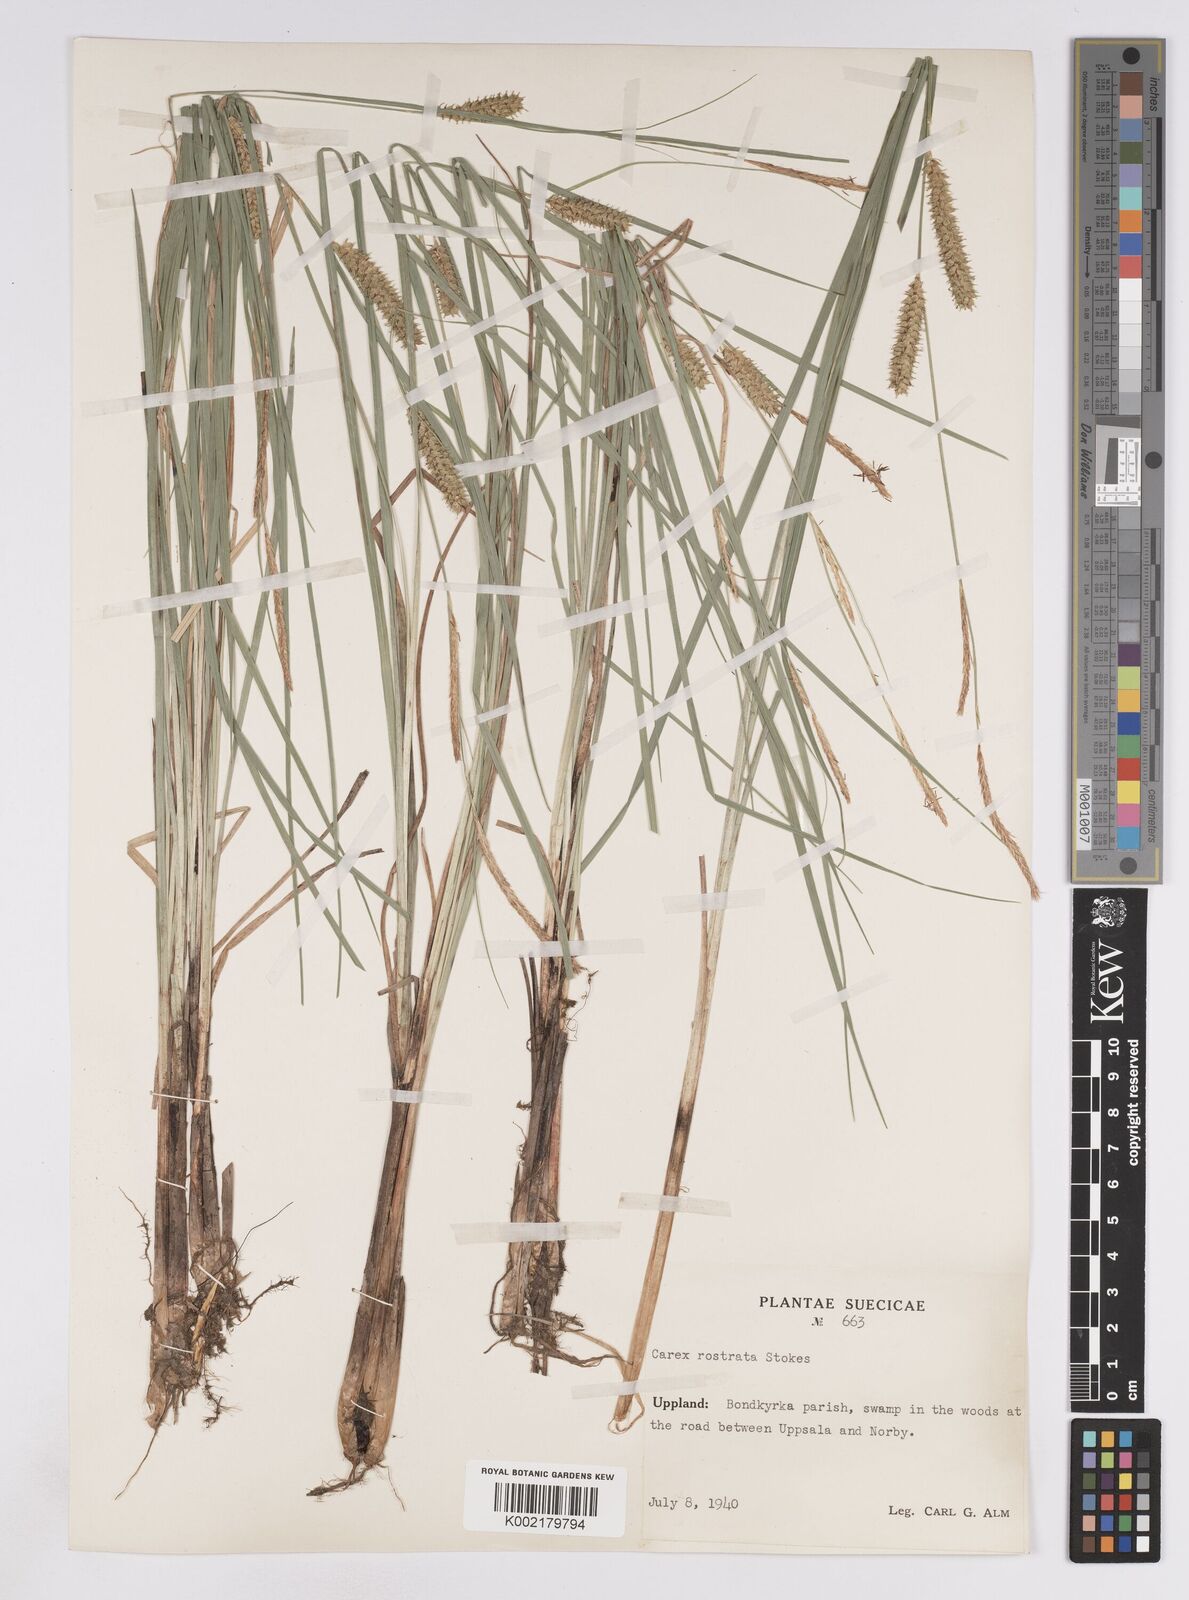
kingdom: Plantae
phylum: Tracheophyta
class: Liliopsida
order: Poales
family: Cyperaceae
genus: Carex
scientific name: Carex rostrata
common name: Bottle sedge
